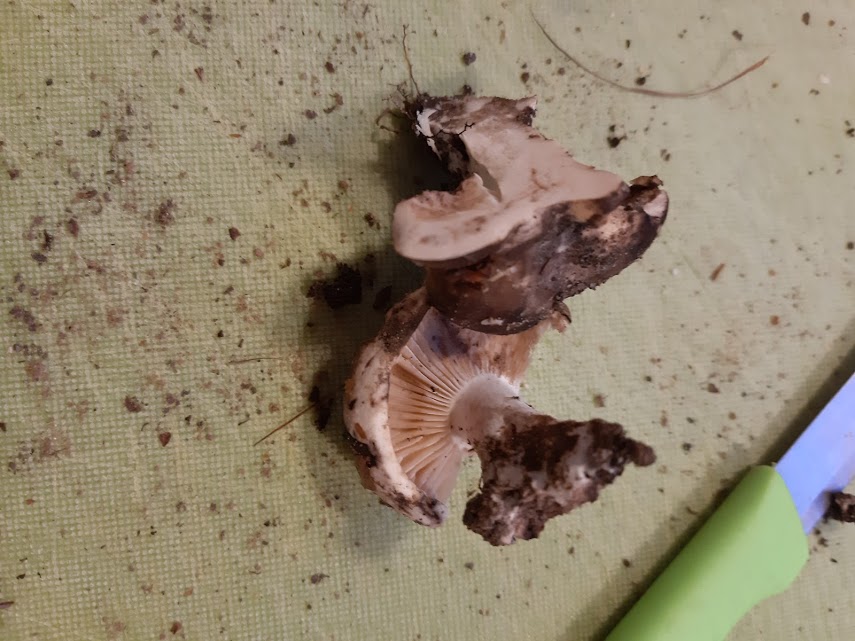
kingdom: Fungi
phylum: Basidiomycota
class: Agaricomycetes
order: Russulales
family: Russulaceae
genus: Russula
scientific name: Russula adusta
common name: sværtende skørhat
